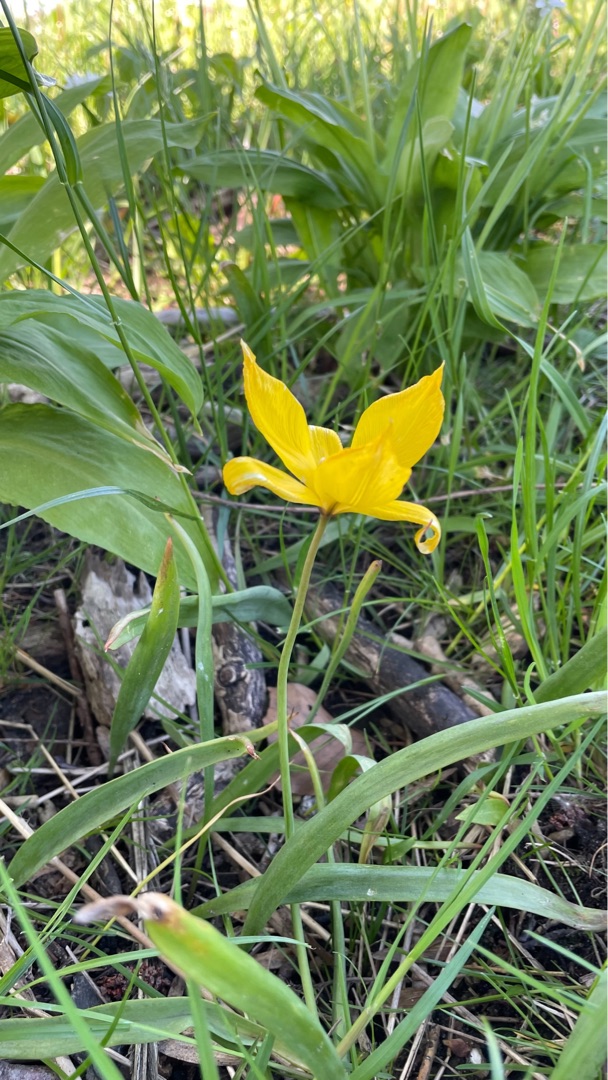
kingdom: Plantae
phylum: Tracheophyta
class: Liliopsida
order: Liliales
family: Liliaceae
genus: Tulipa
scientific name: Tulipa sylvestris
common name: Vild tulipan
